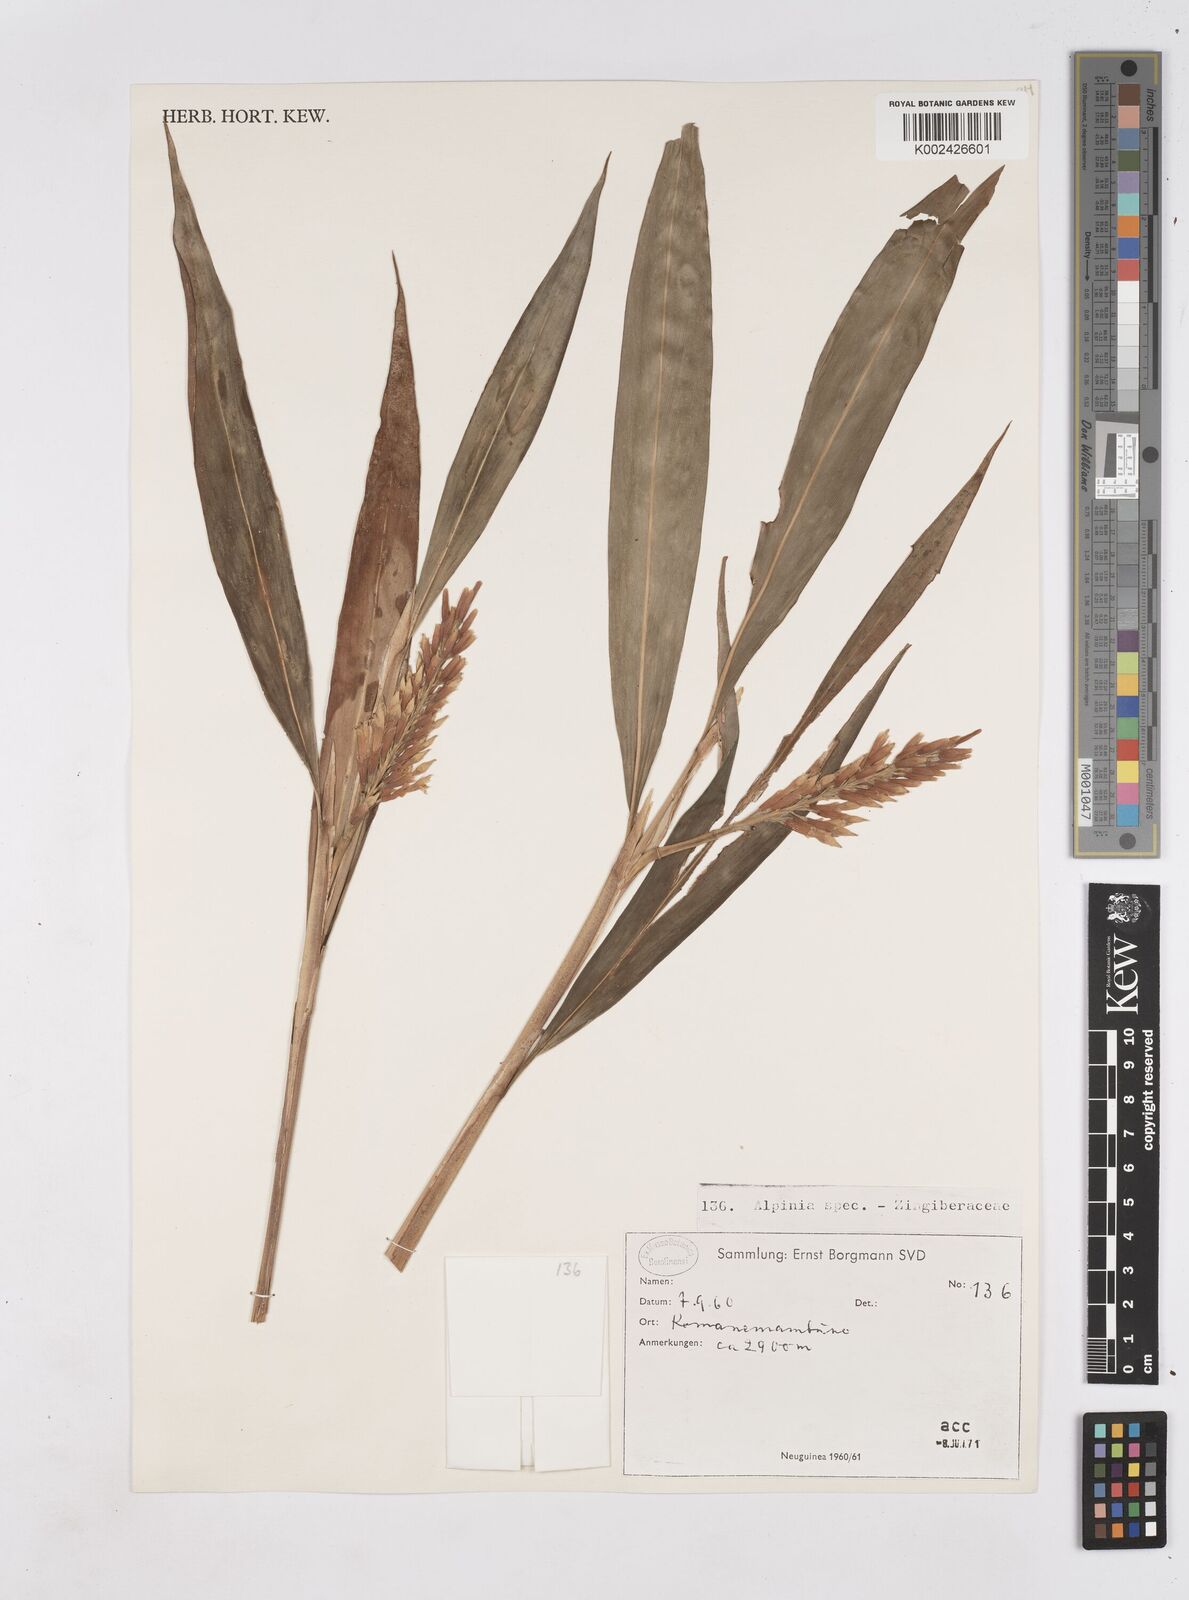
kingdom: Plantae
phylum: Tracheophyta
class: Liliopsida
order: Zingiberales
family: Zingiberaceae
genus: Riedelia
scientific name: Riedelia
